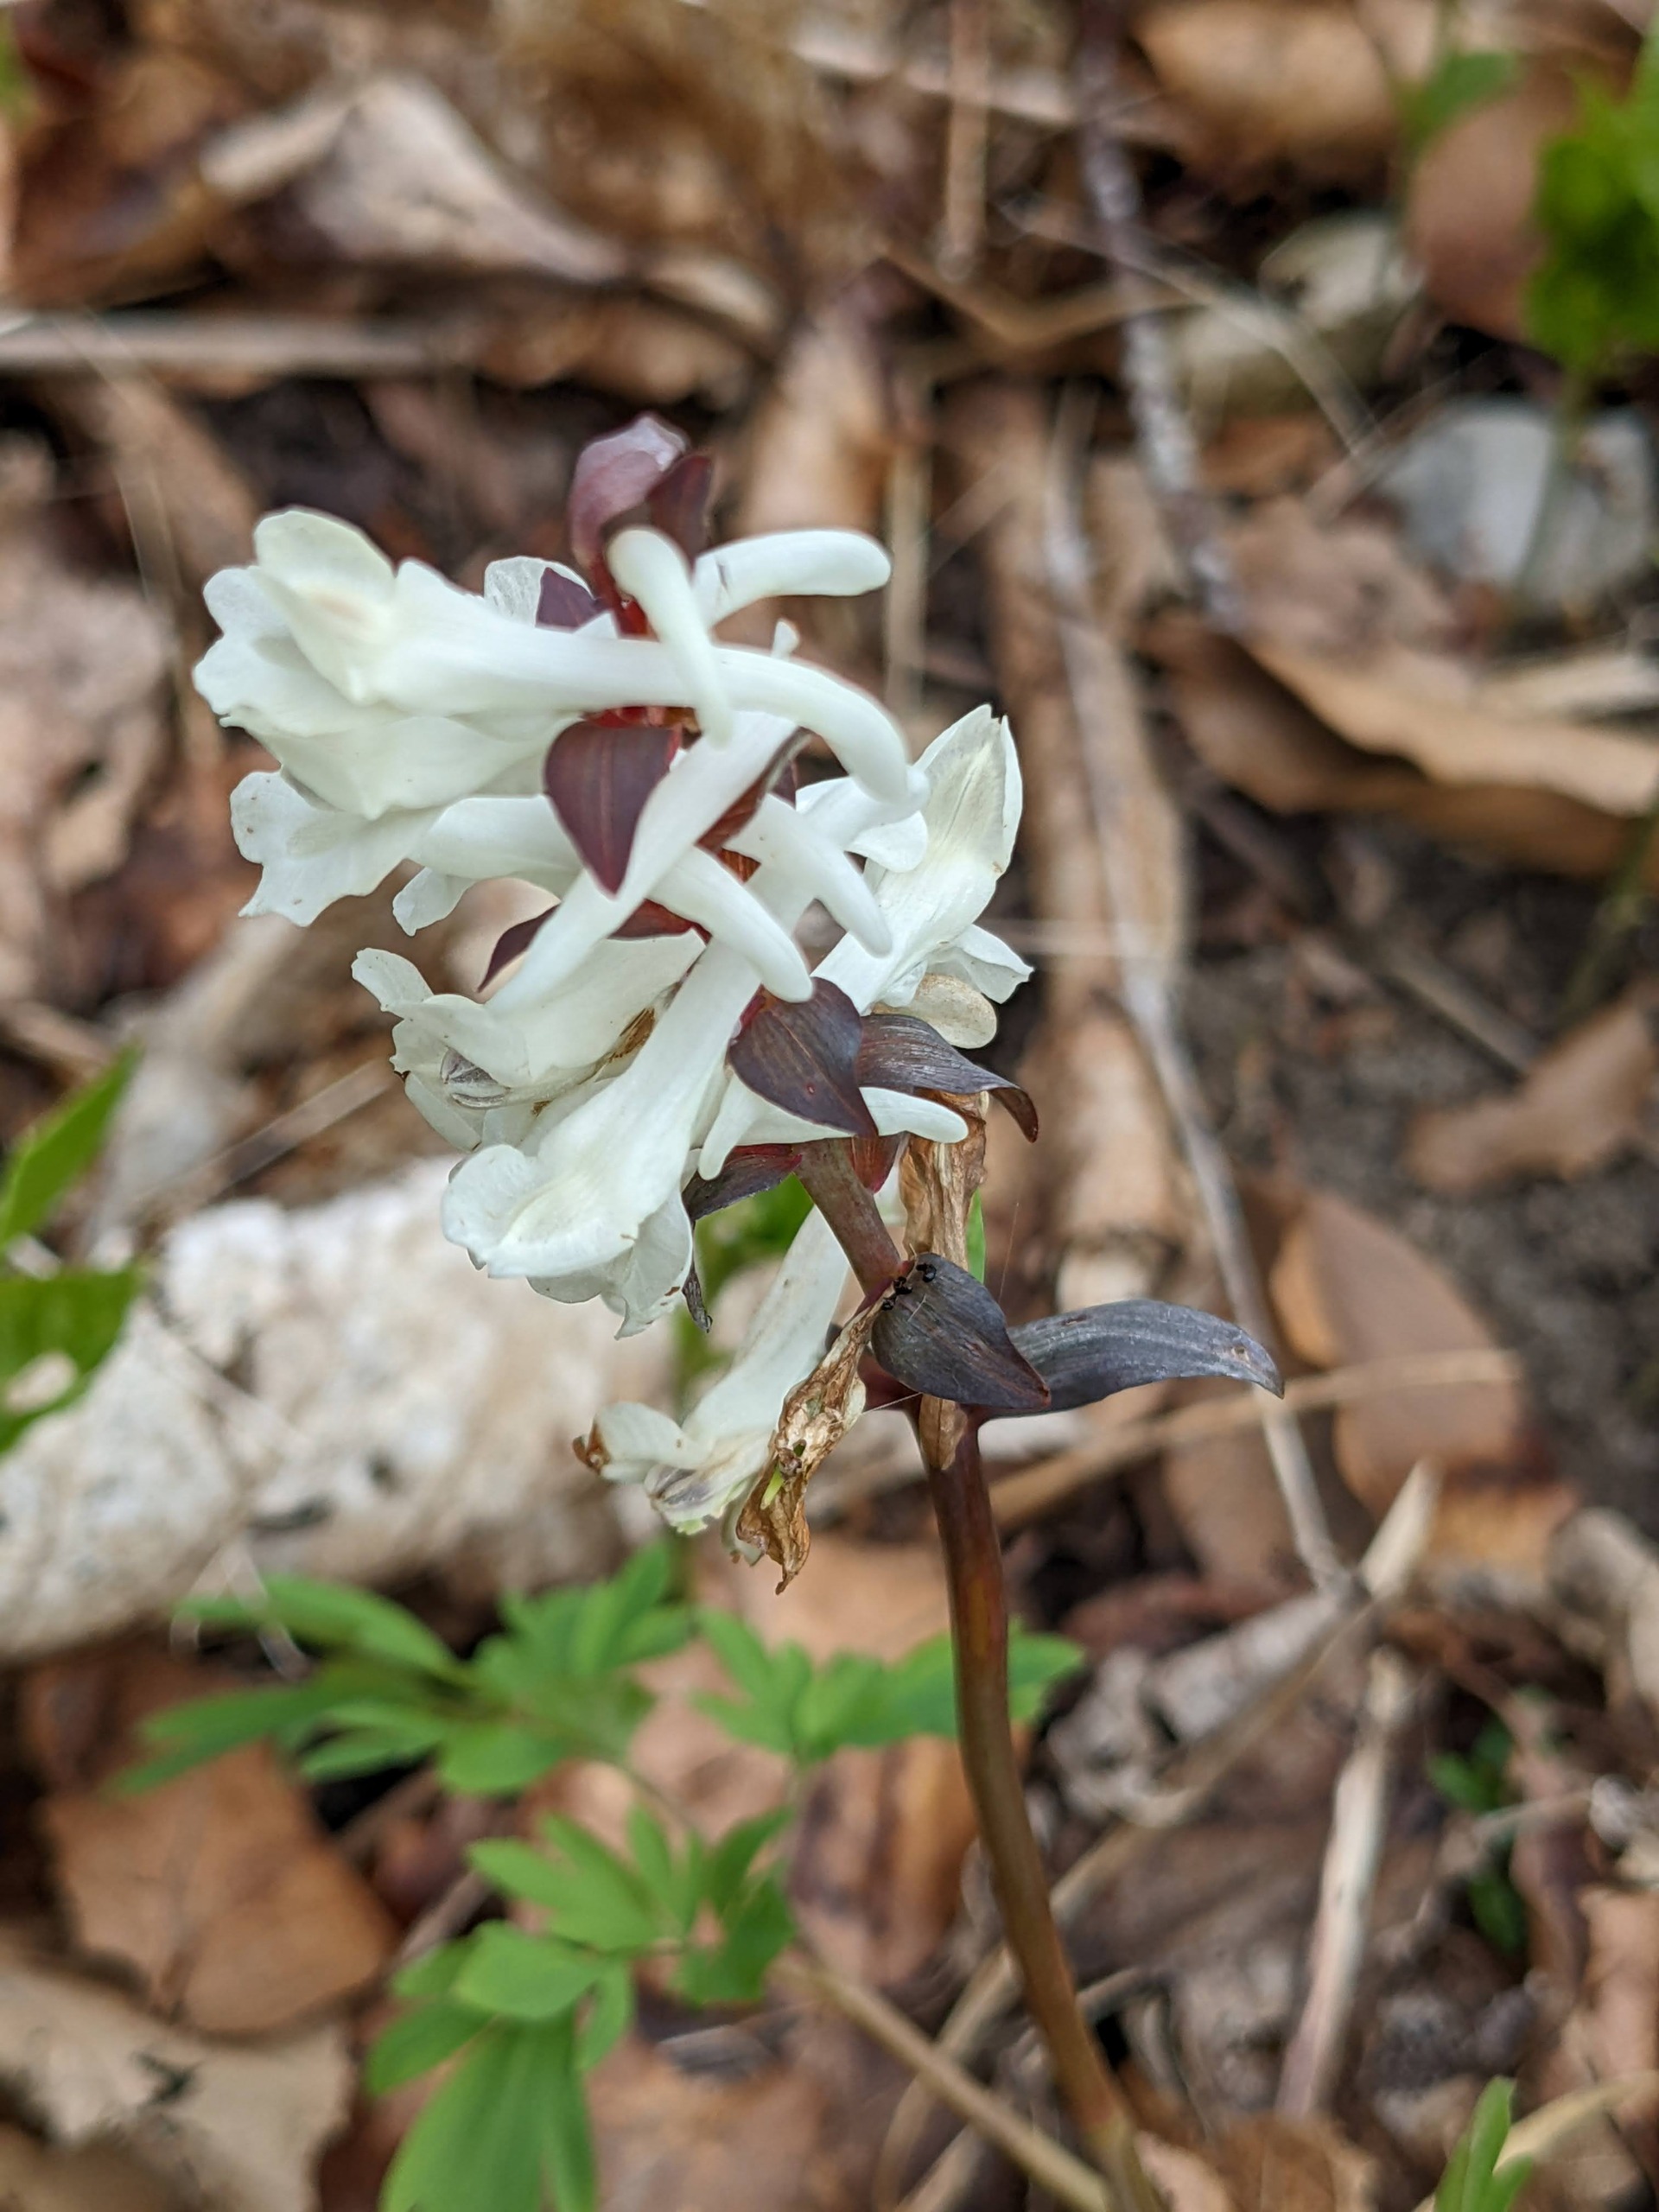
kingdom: Plantae
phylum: Tracheophyta
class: Magnoliopsida
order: Ranunculales
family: Papaveraceae
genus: Corydalis
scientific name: Corydalis cava
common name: Hulrodet lærkespore
